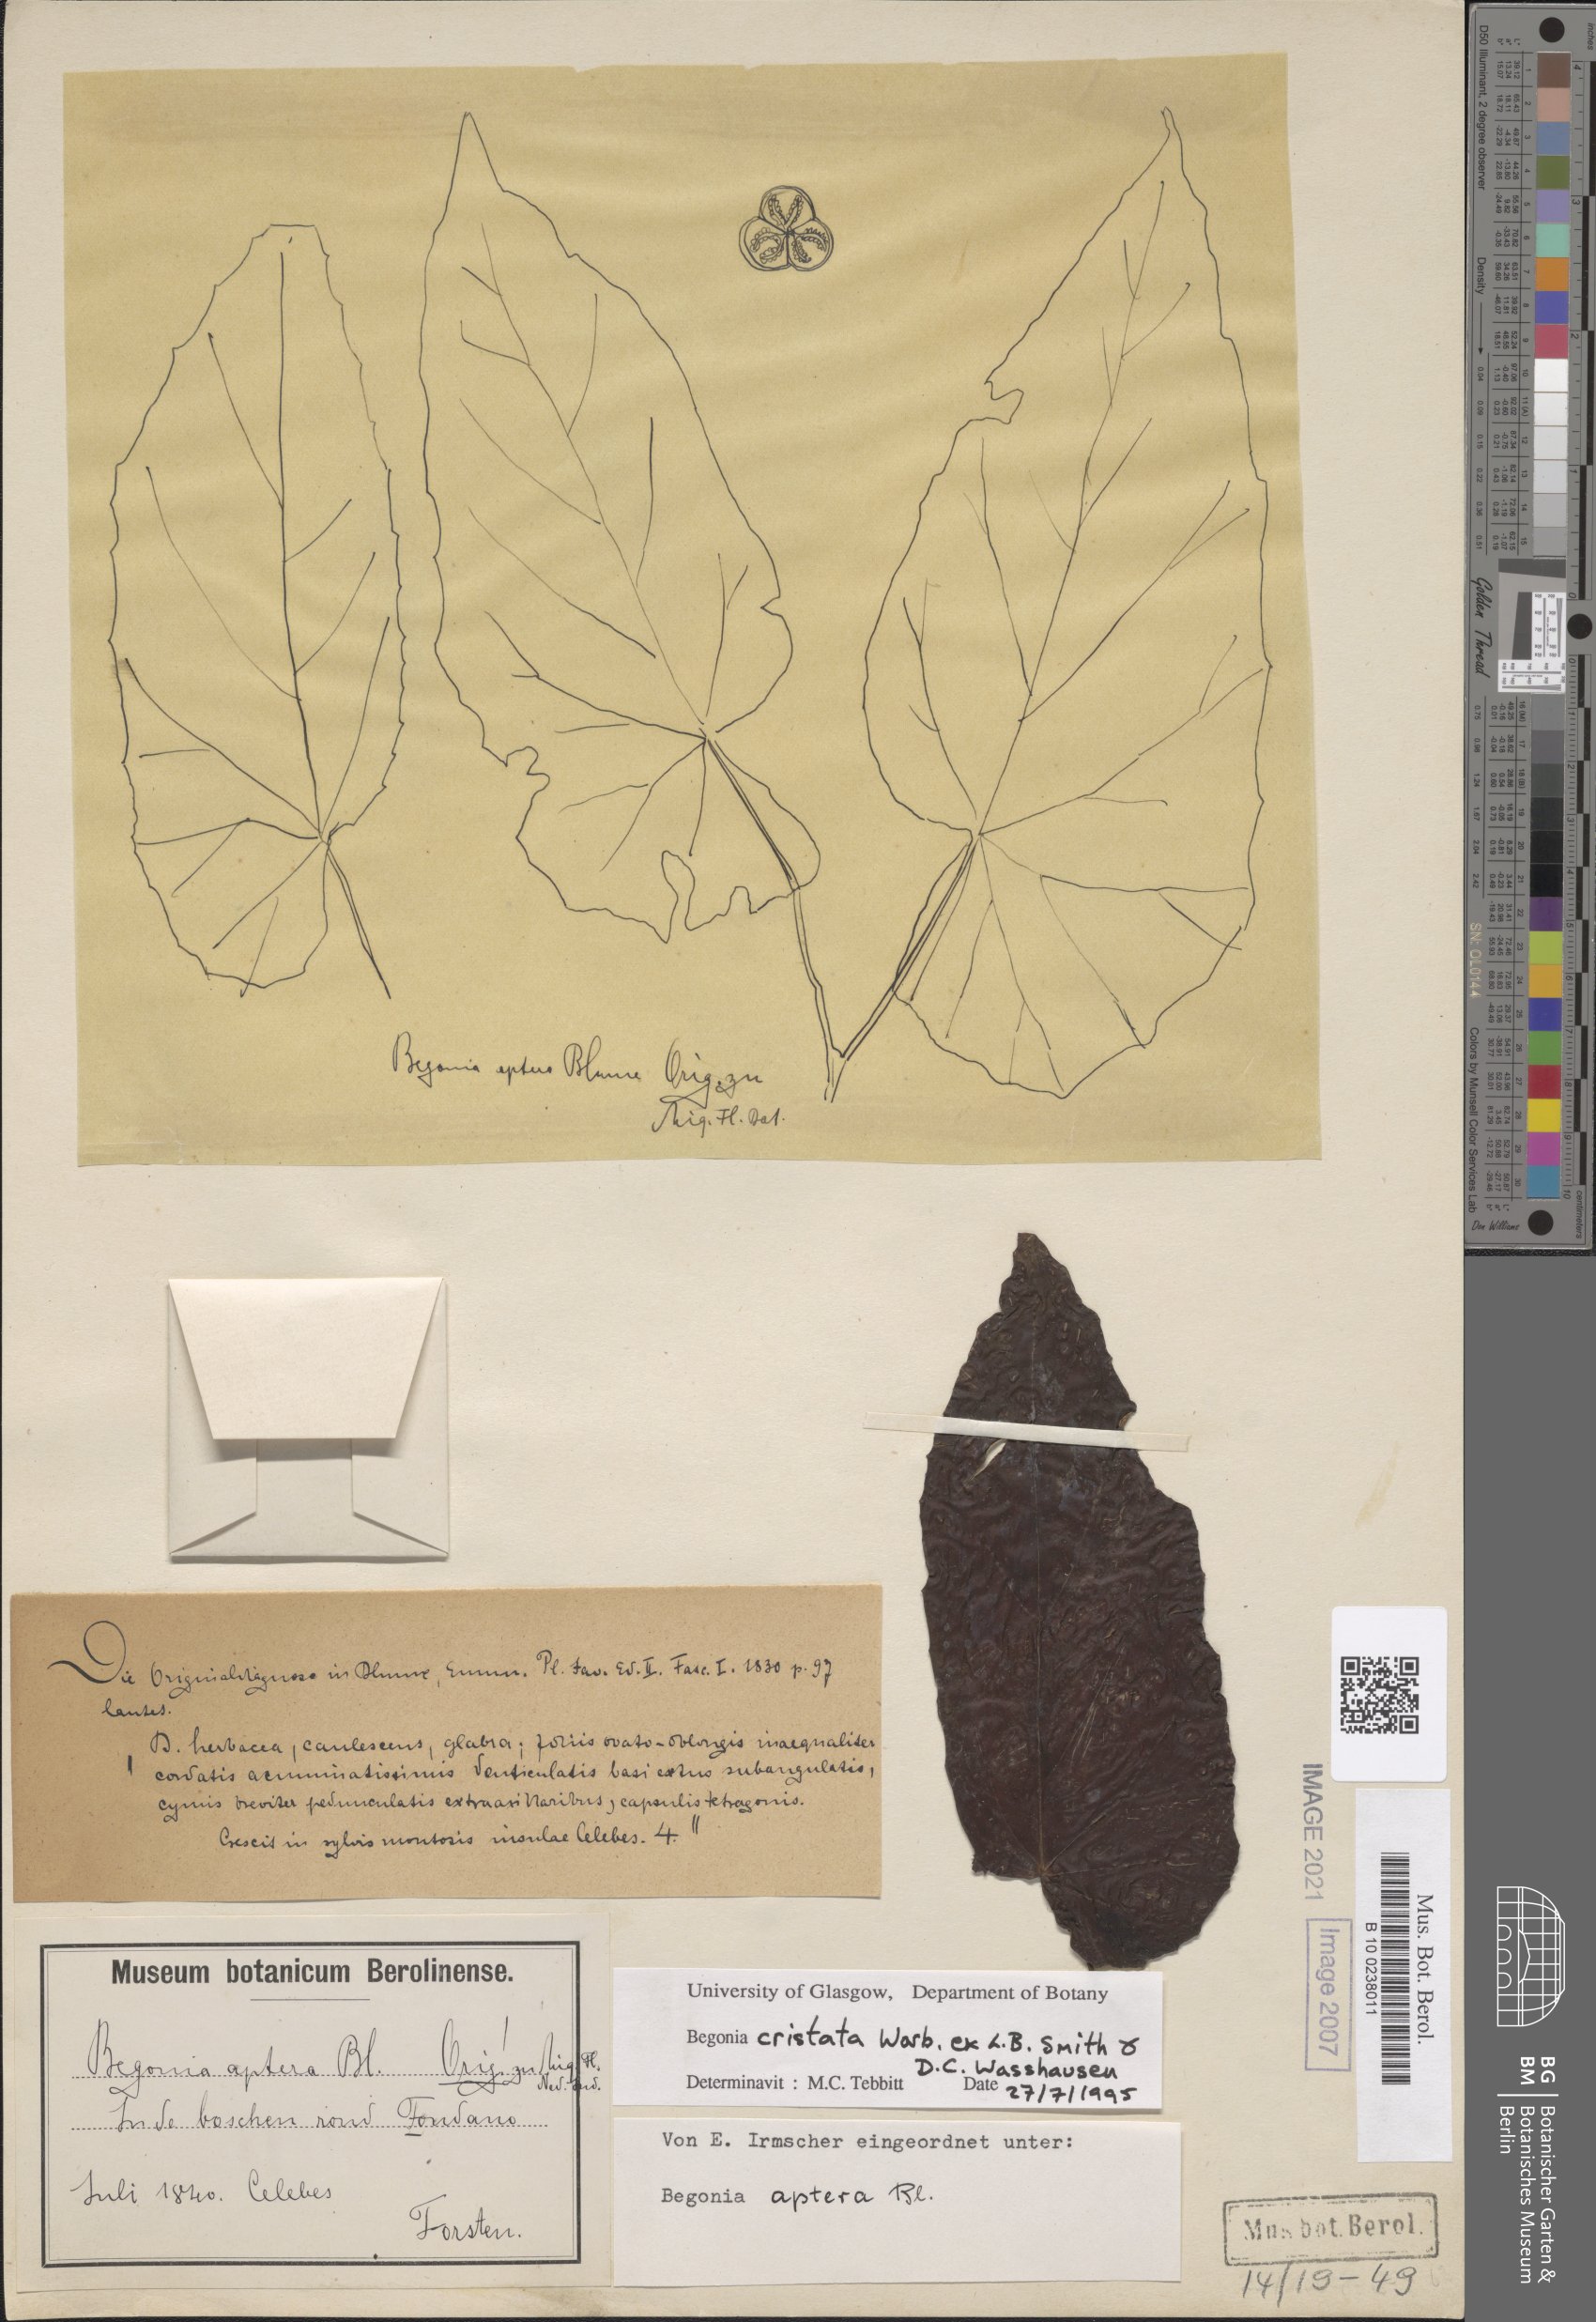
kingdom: Plantae
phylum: Tracheophyta
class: Magnoliopsida
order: Cucurbitales
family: Begoniaceae
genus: Begonia
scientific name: Begonia aptera
